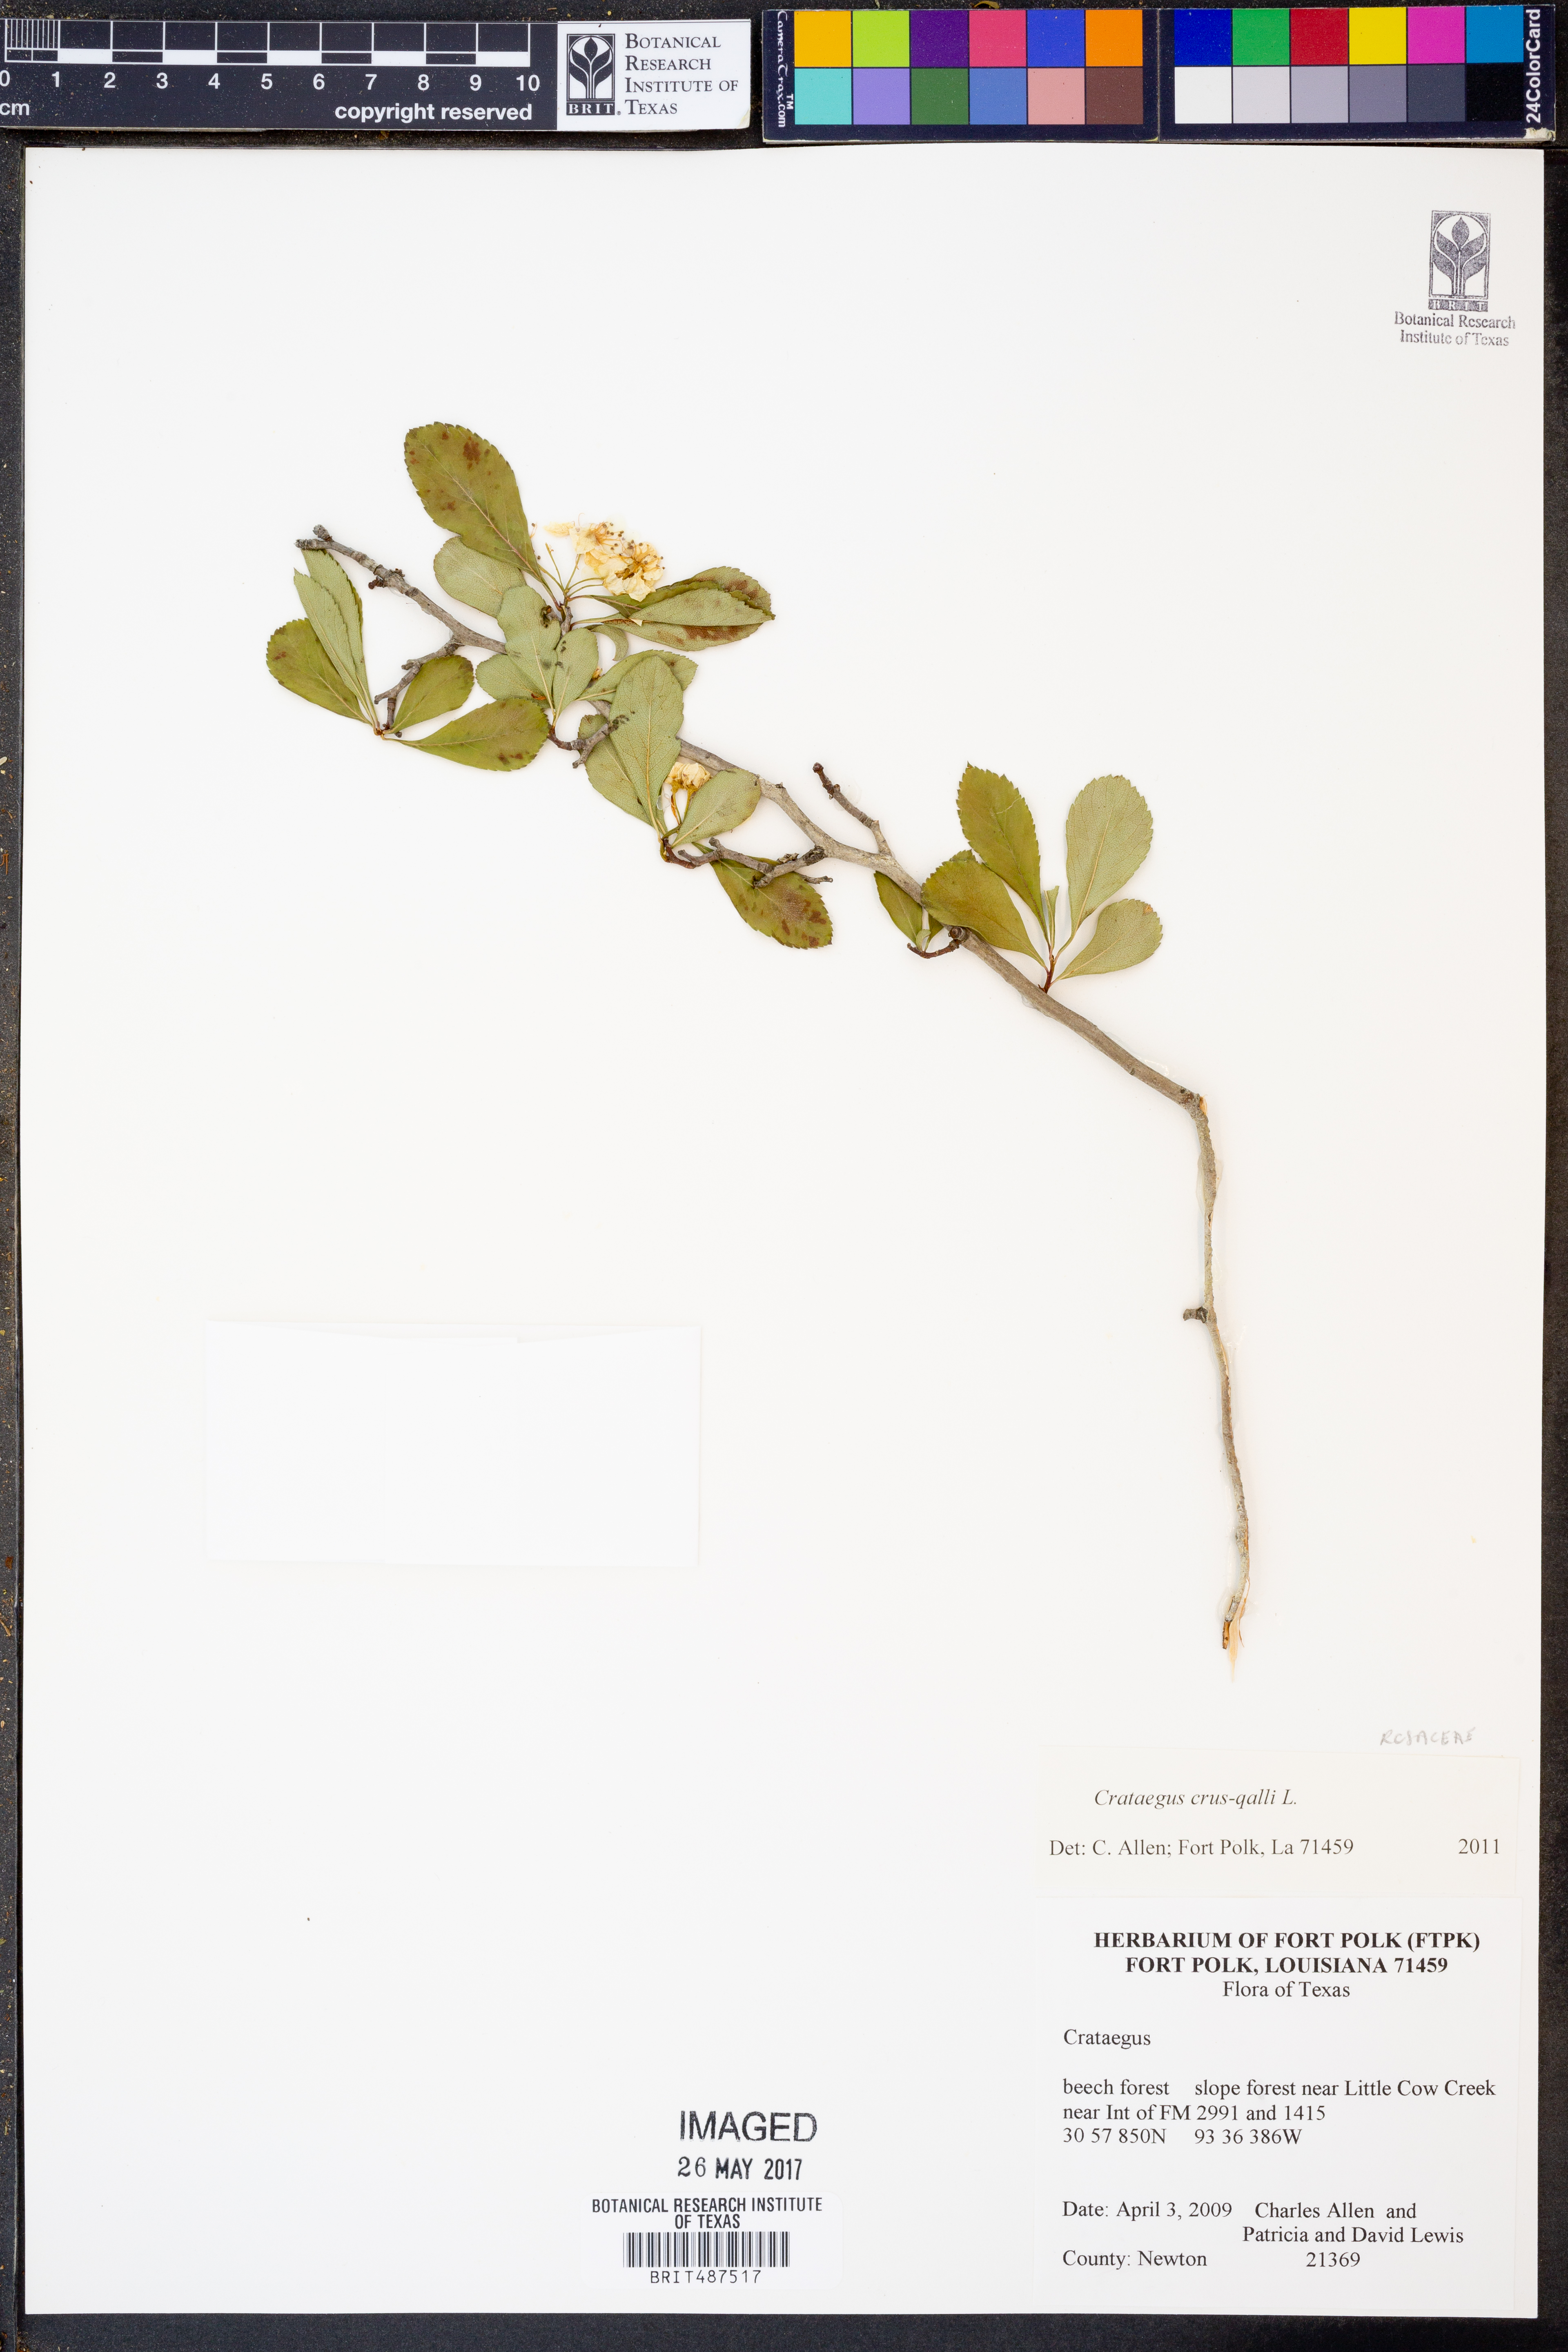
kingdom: Plantae
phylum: Tracheophyta
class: Magnoliopsida
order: Rosales
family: Rosaceae
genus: Crataegus
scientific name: Crataegus crus-galli
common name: Cockspurthorn
